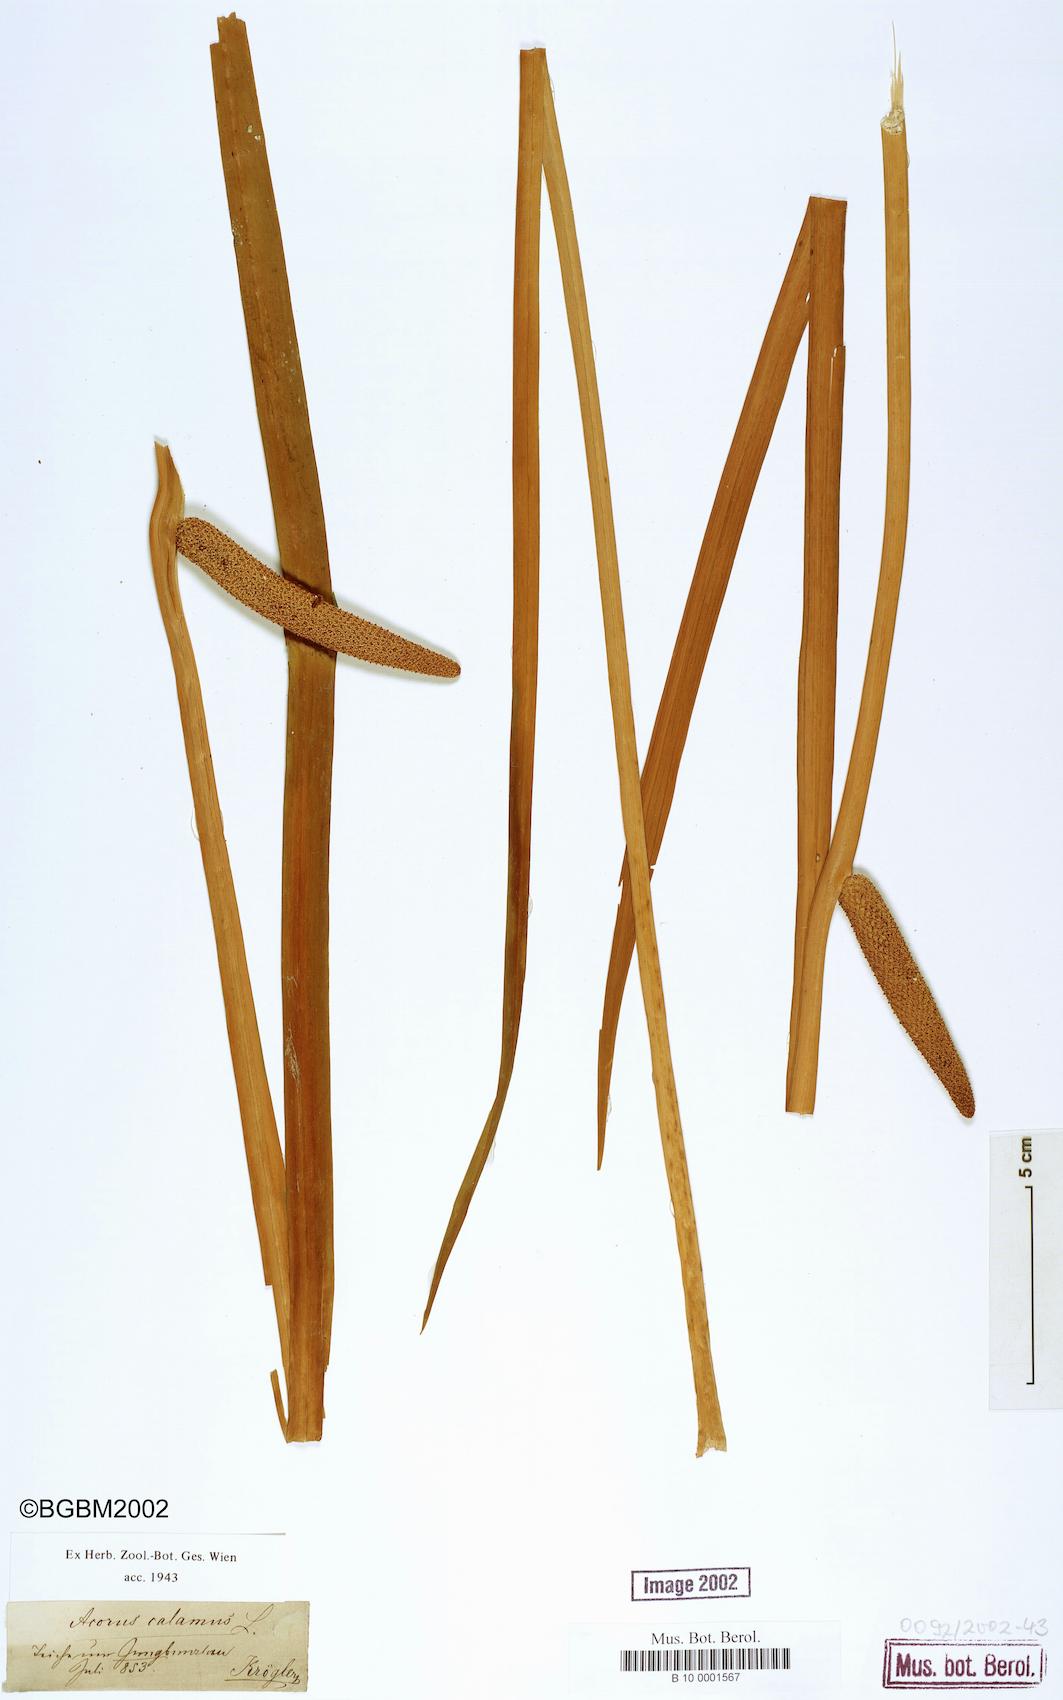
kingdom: Plantae
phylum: Tracheophyta
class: Liliopsida
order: Acorales
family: Acoraceae
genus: Acorus
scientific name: Acorus calamus
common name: Sweet-flag
